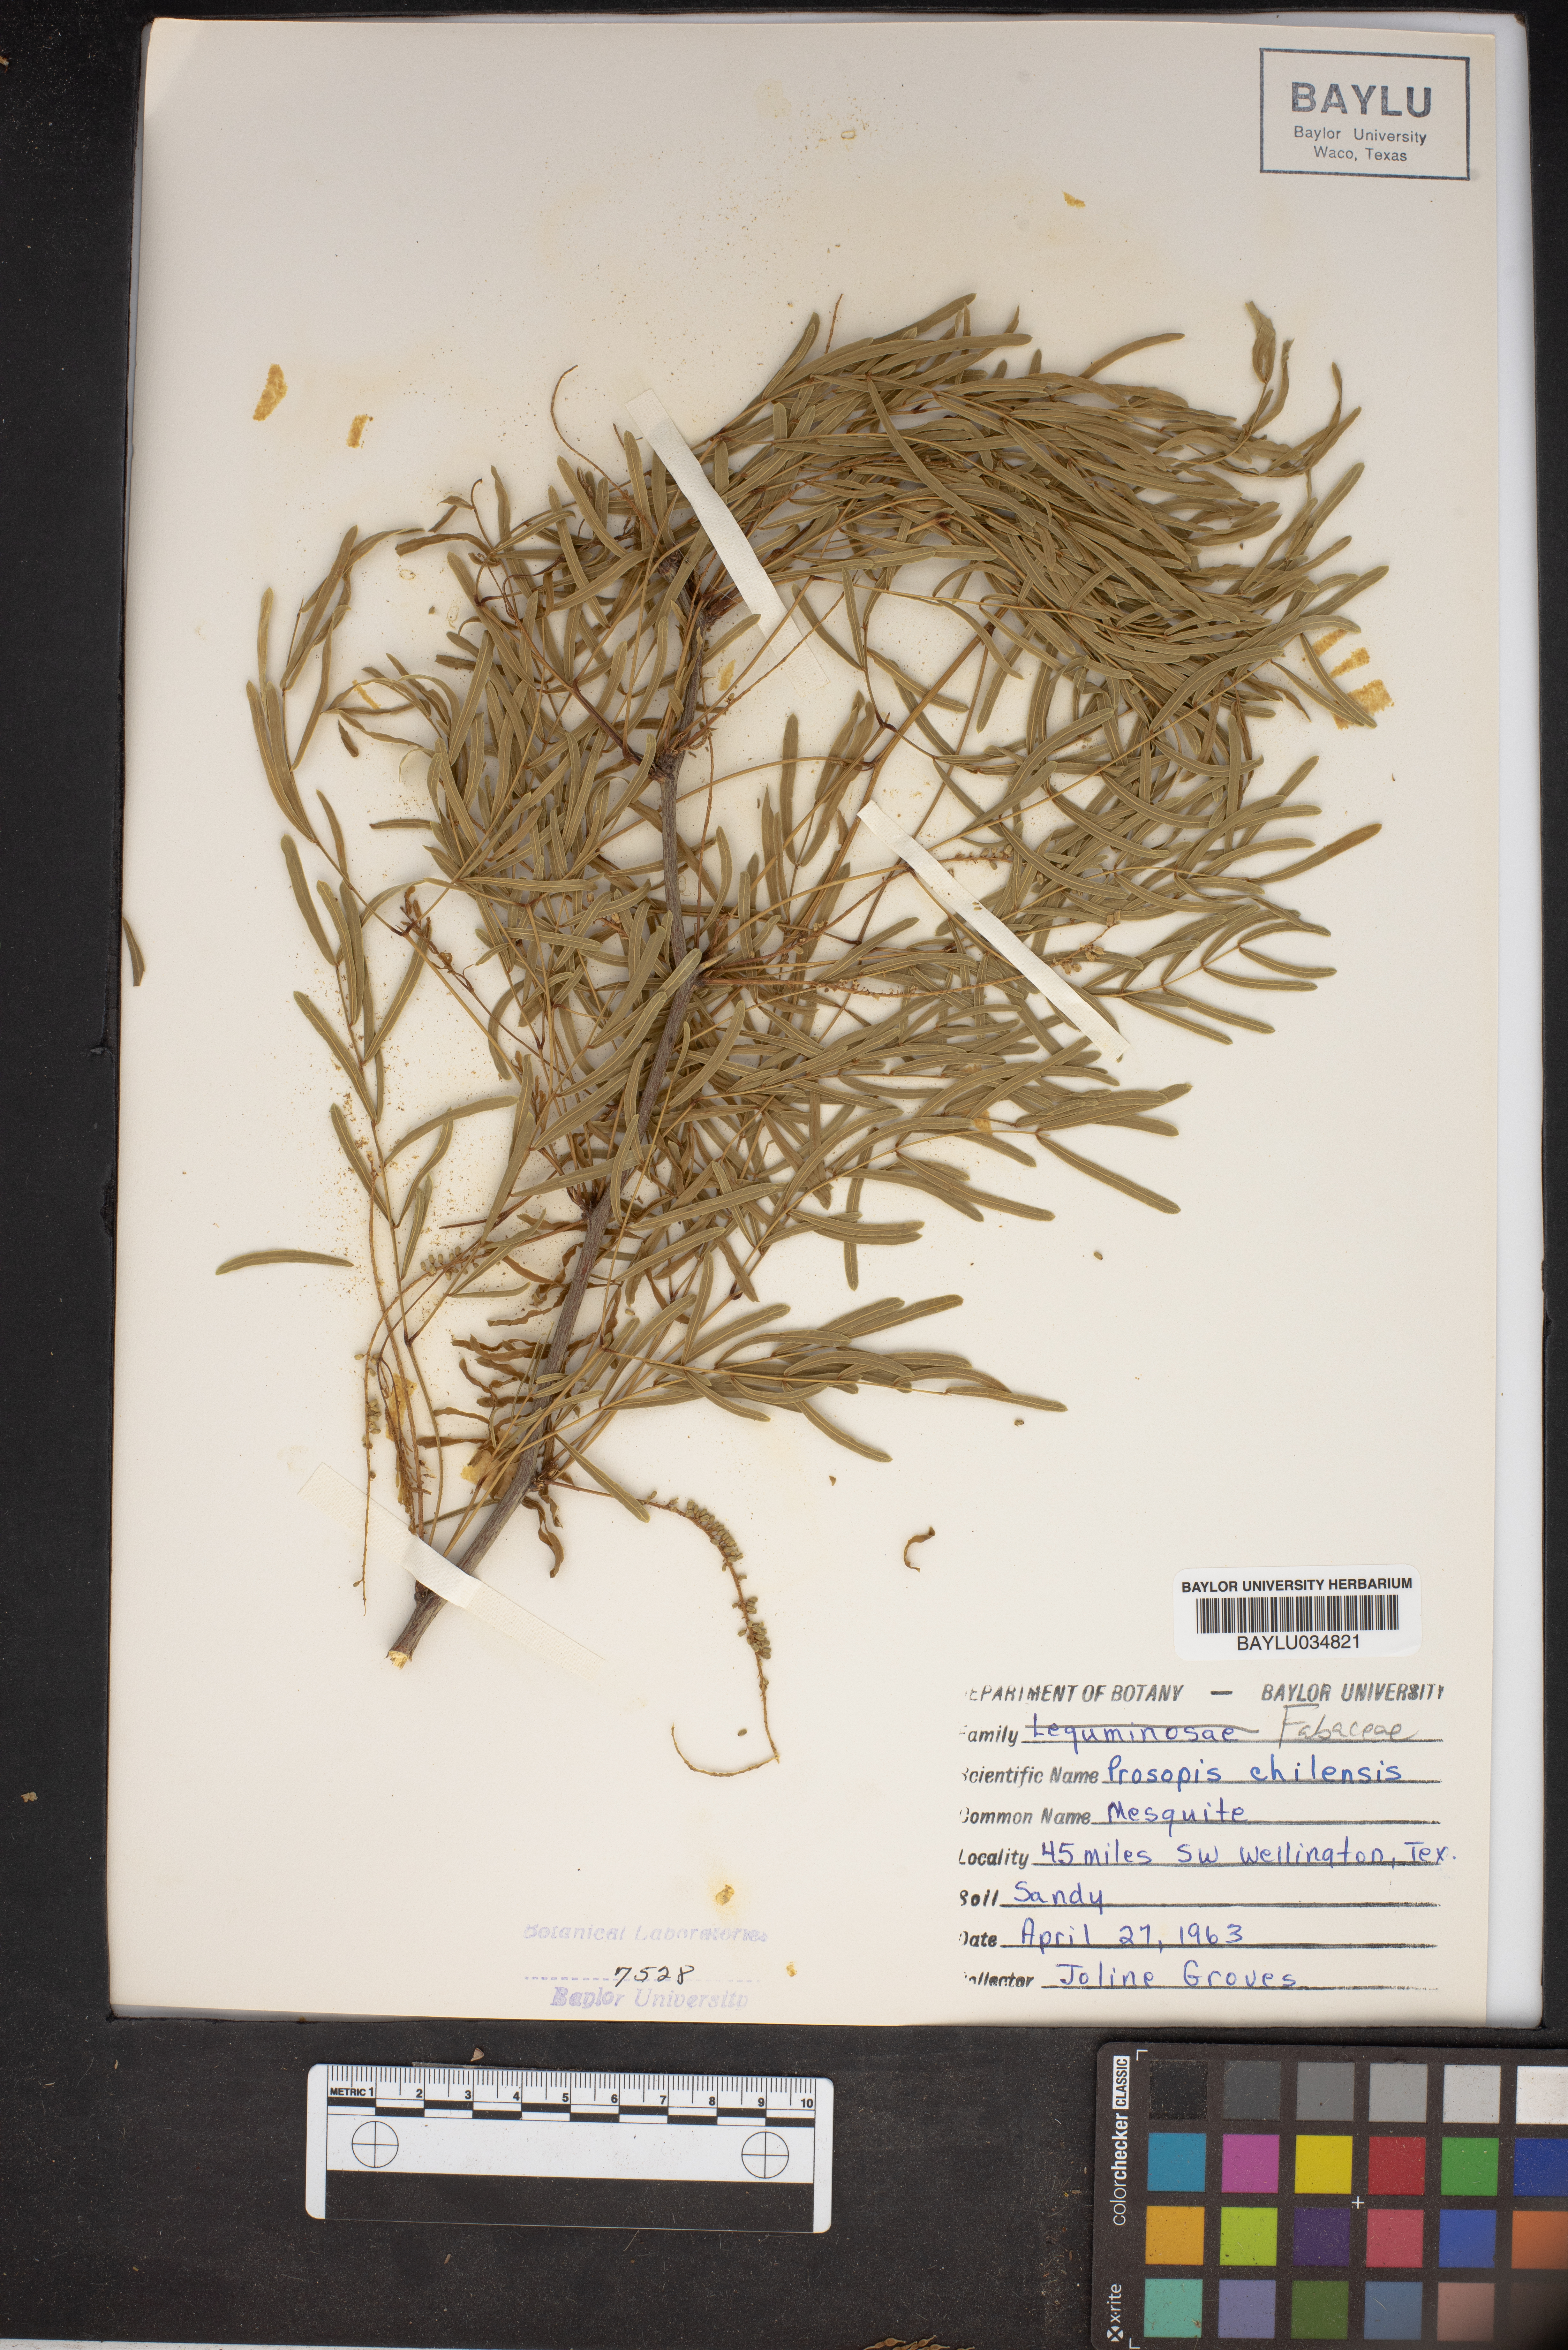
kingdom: Plantae
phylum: Tracheophyta
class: Magnoliopsida
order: Fabales
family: Fabaceae
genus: Prosopis
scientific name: Prosopis chilensis
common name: Chilean algarrobo
